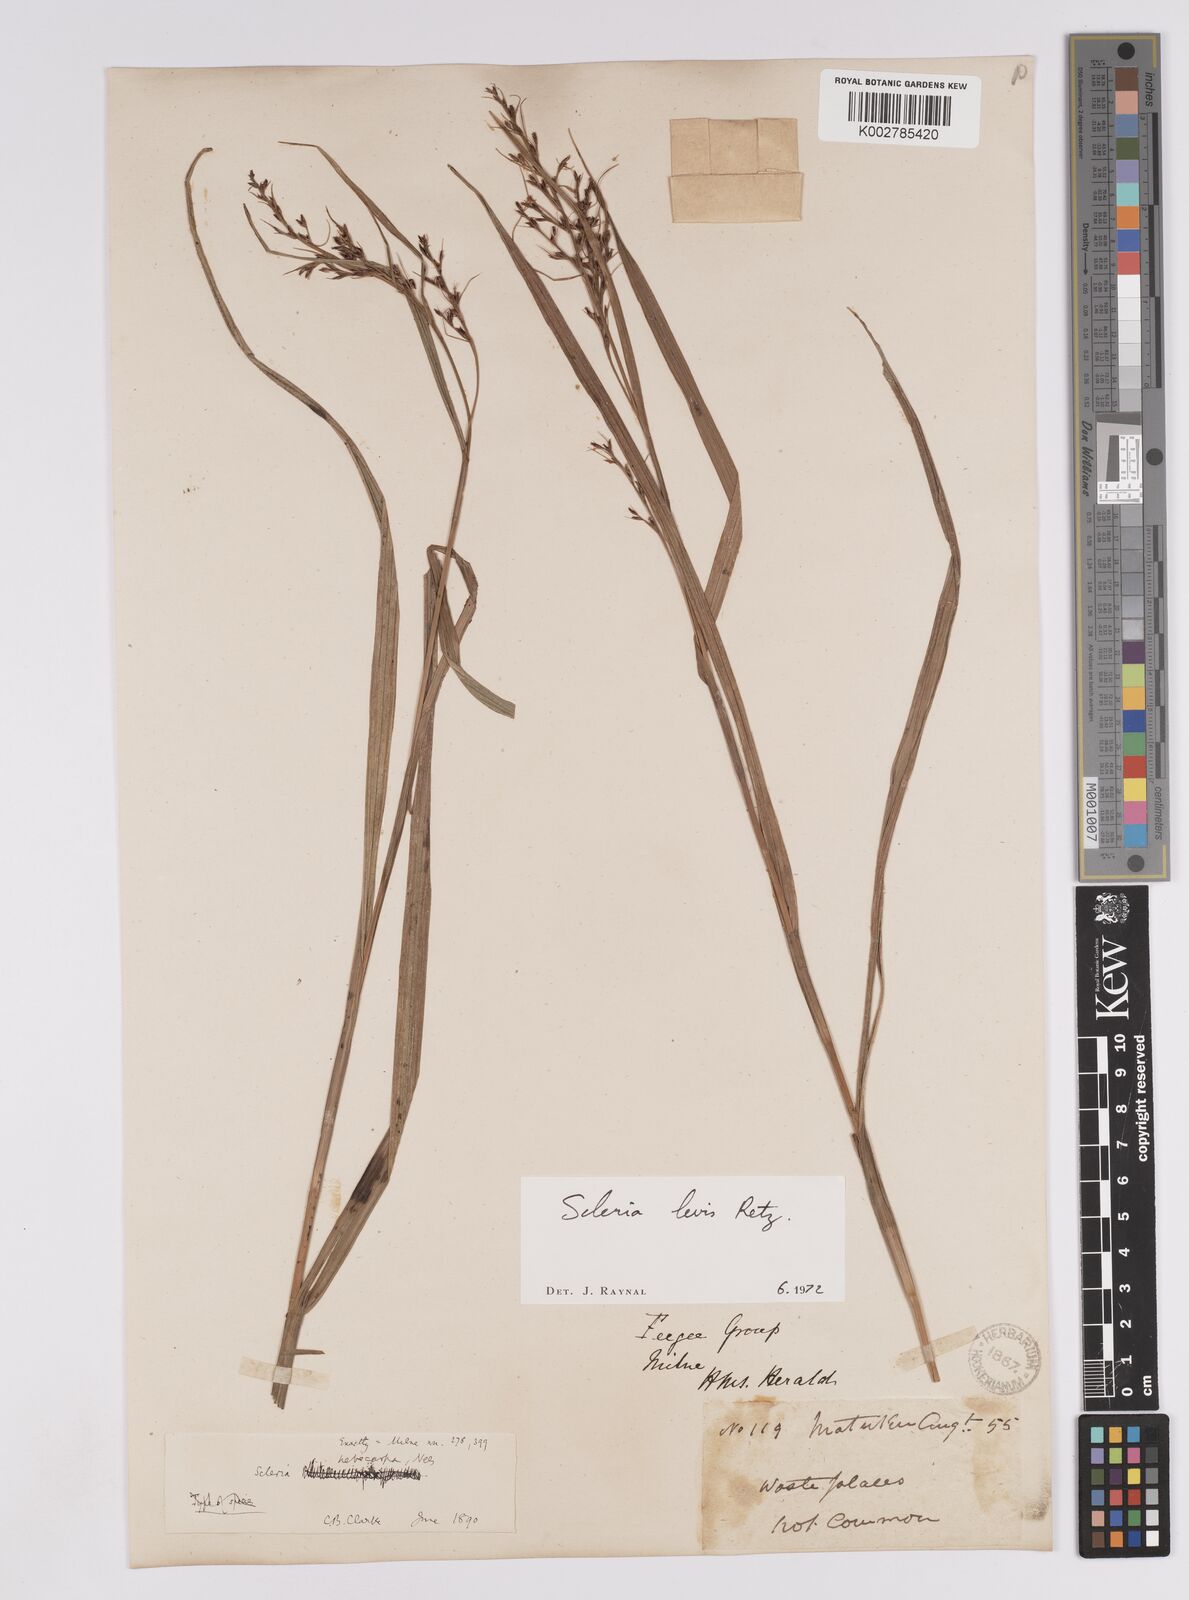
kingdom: Plantae
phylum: Tracheophyta
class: Liliopsida
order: Poales
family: Cyperaceae
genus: Scleria
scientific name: Scleria levis
